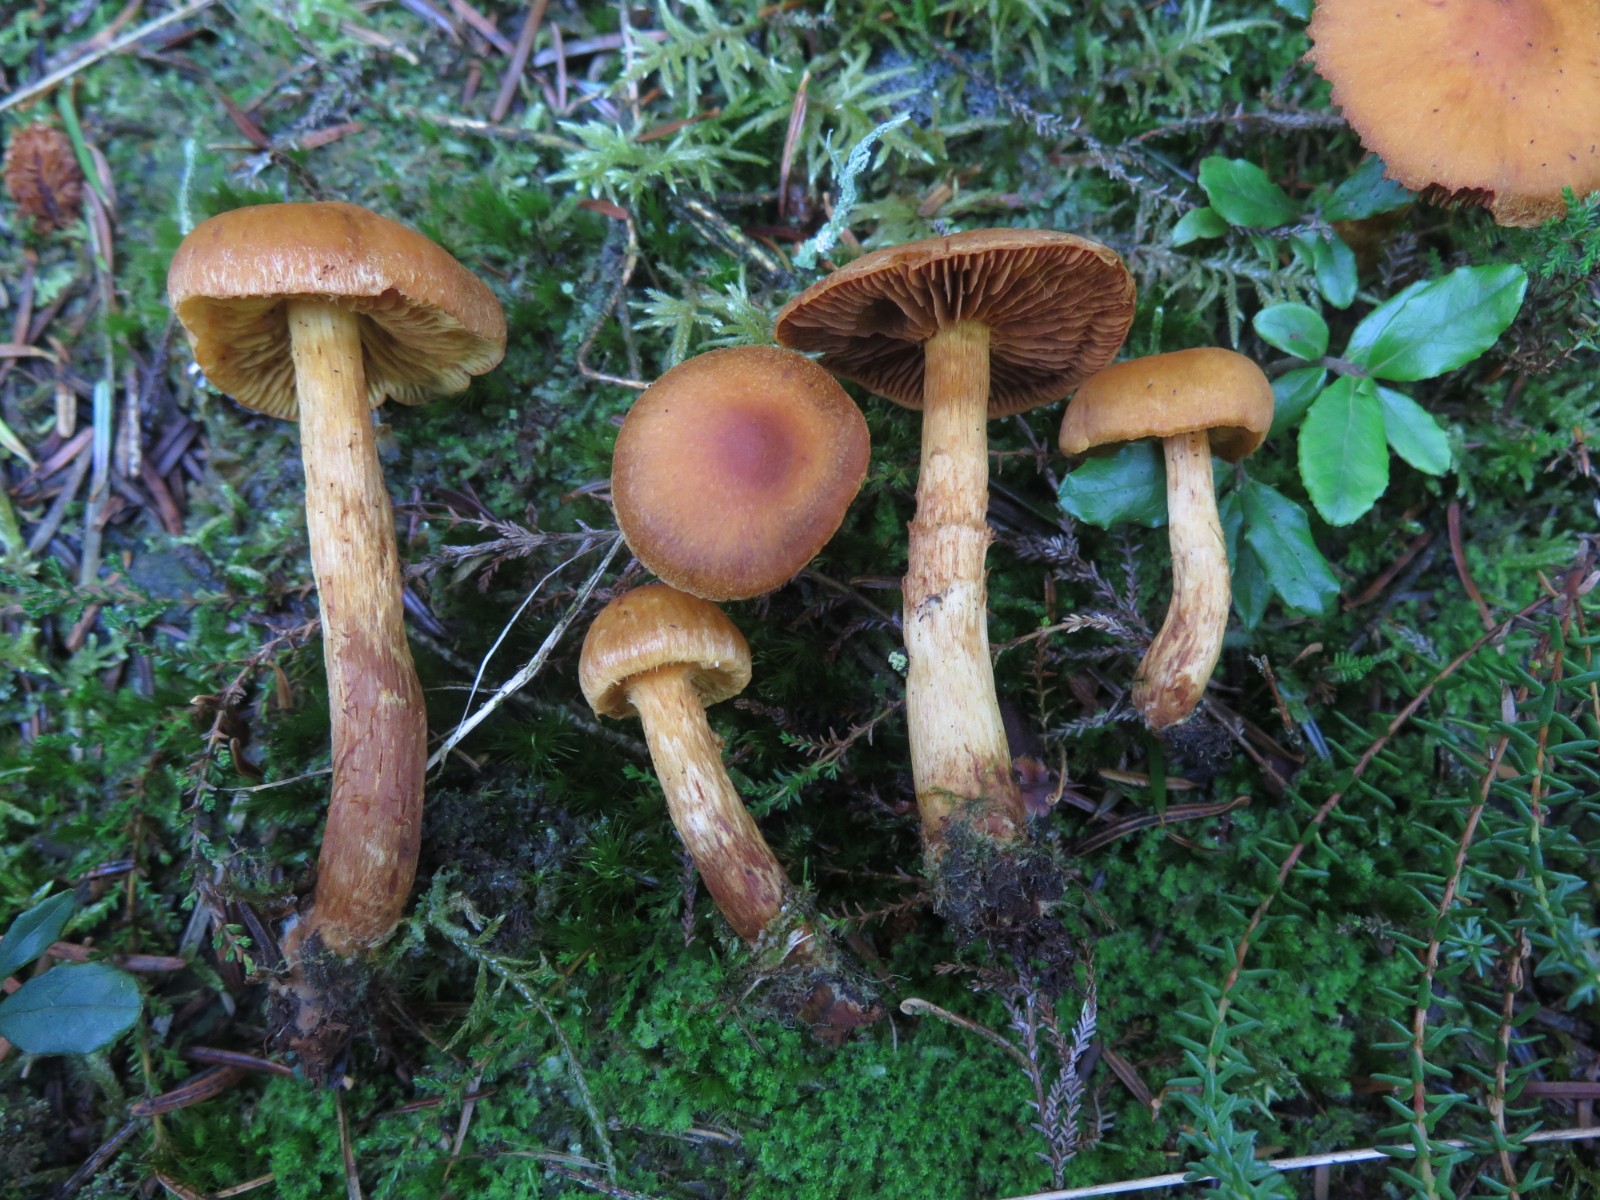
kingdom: Fungi
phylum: Basidiomycota
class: Agaricomycetes
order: Agaricales
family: Cortinariaceae
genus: Aureonarius
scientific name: Aureonarius limonius
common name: orangegul slørhat
